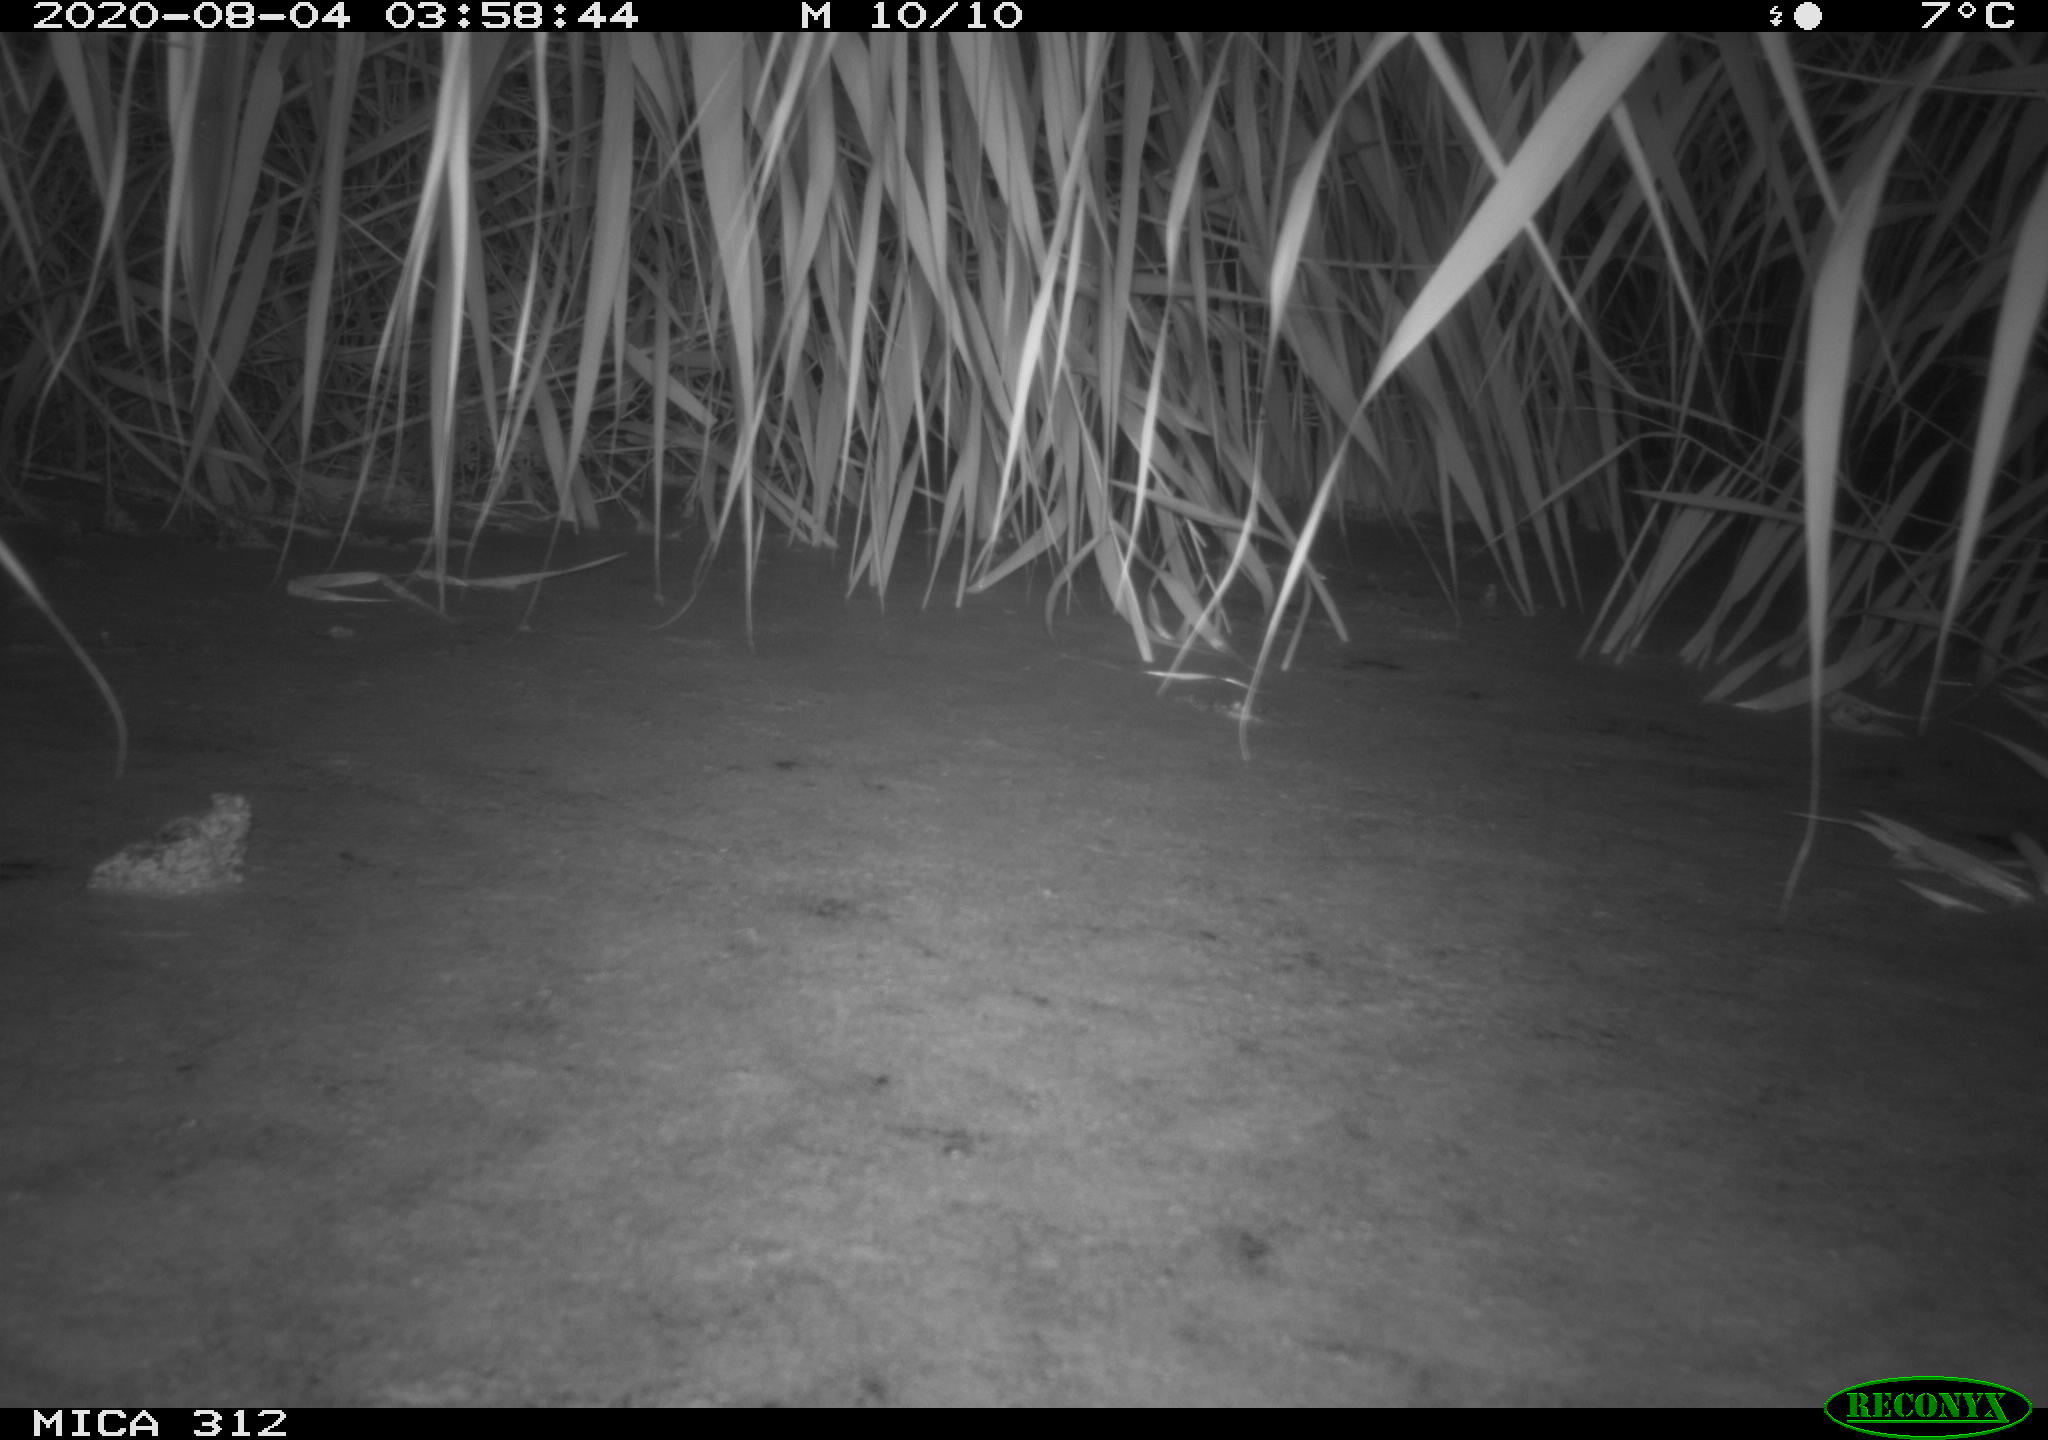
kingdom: Animalia
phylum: Chordata
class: Mammalia
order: Rodentia
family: Muridae
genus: Rattus
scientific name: Rattus norvegicus
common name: Brown rat
